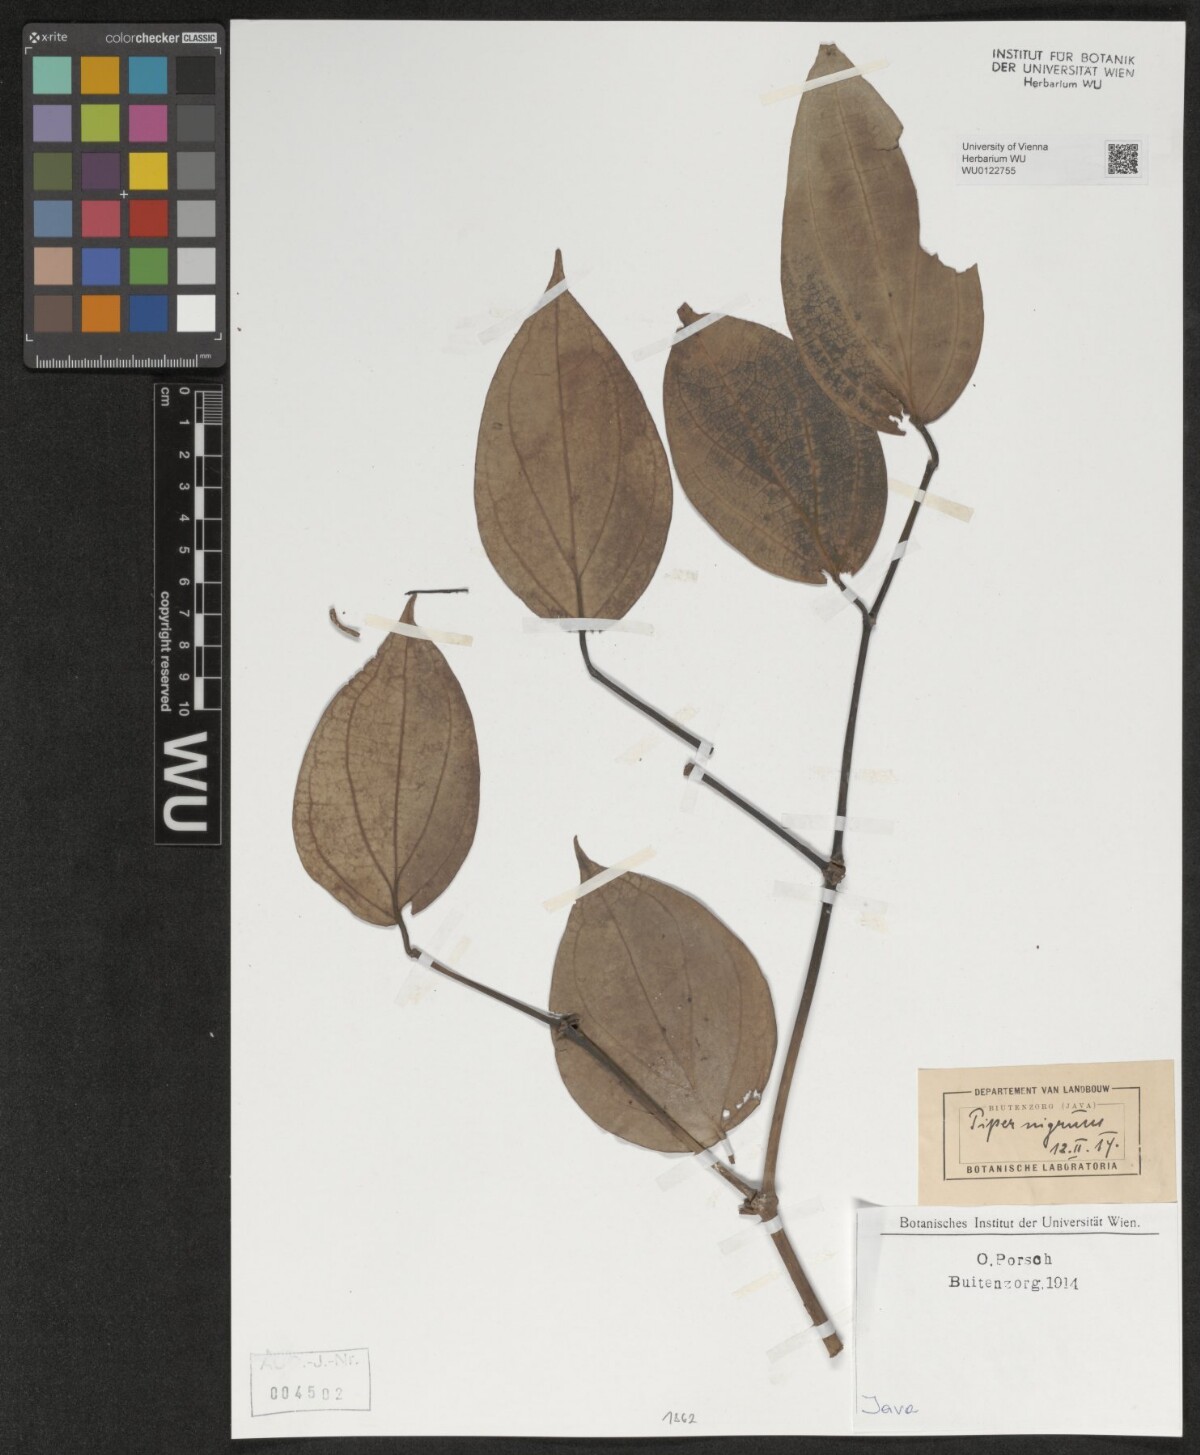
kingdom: Plantae
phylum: Tracheophyta
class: Magnoliopsida
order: Piperales
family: Piperaceae
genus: Piper
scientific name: Piper nigrum
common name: Black pepper
